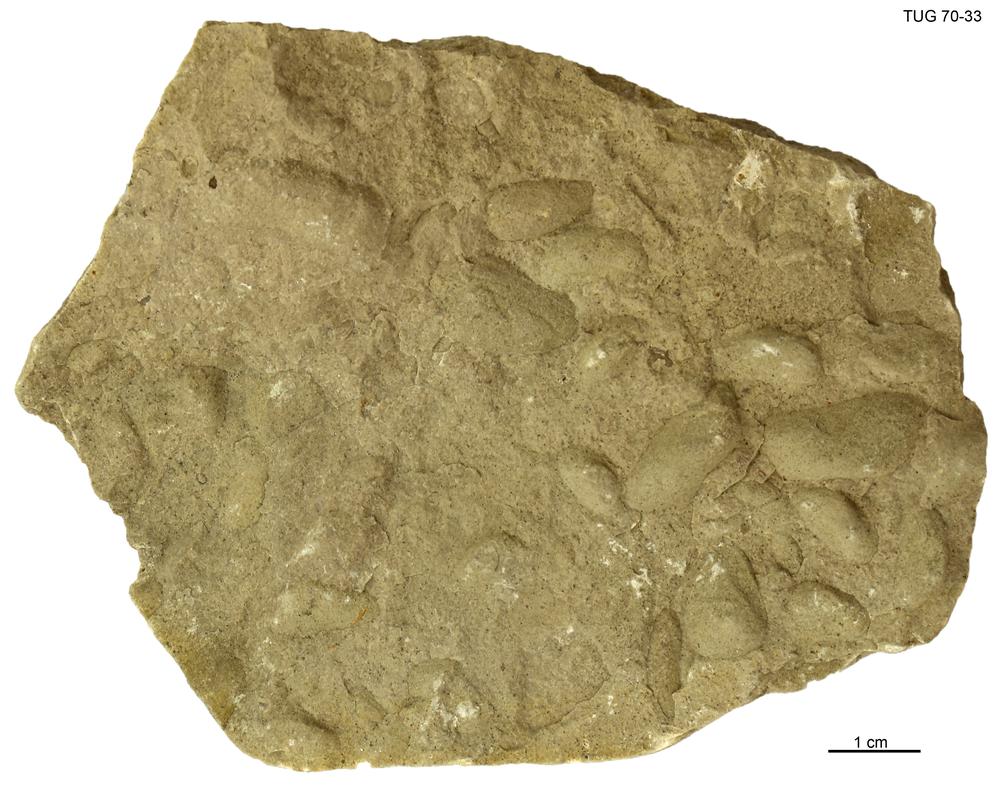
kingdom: Animalia
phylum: Mollusca
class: Bivalvia
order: Modiomorphida
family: Modiomorphidae
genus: Modiolopsis
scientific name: Modiolopsis
